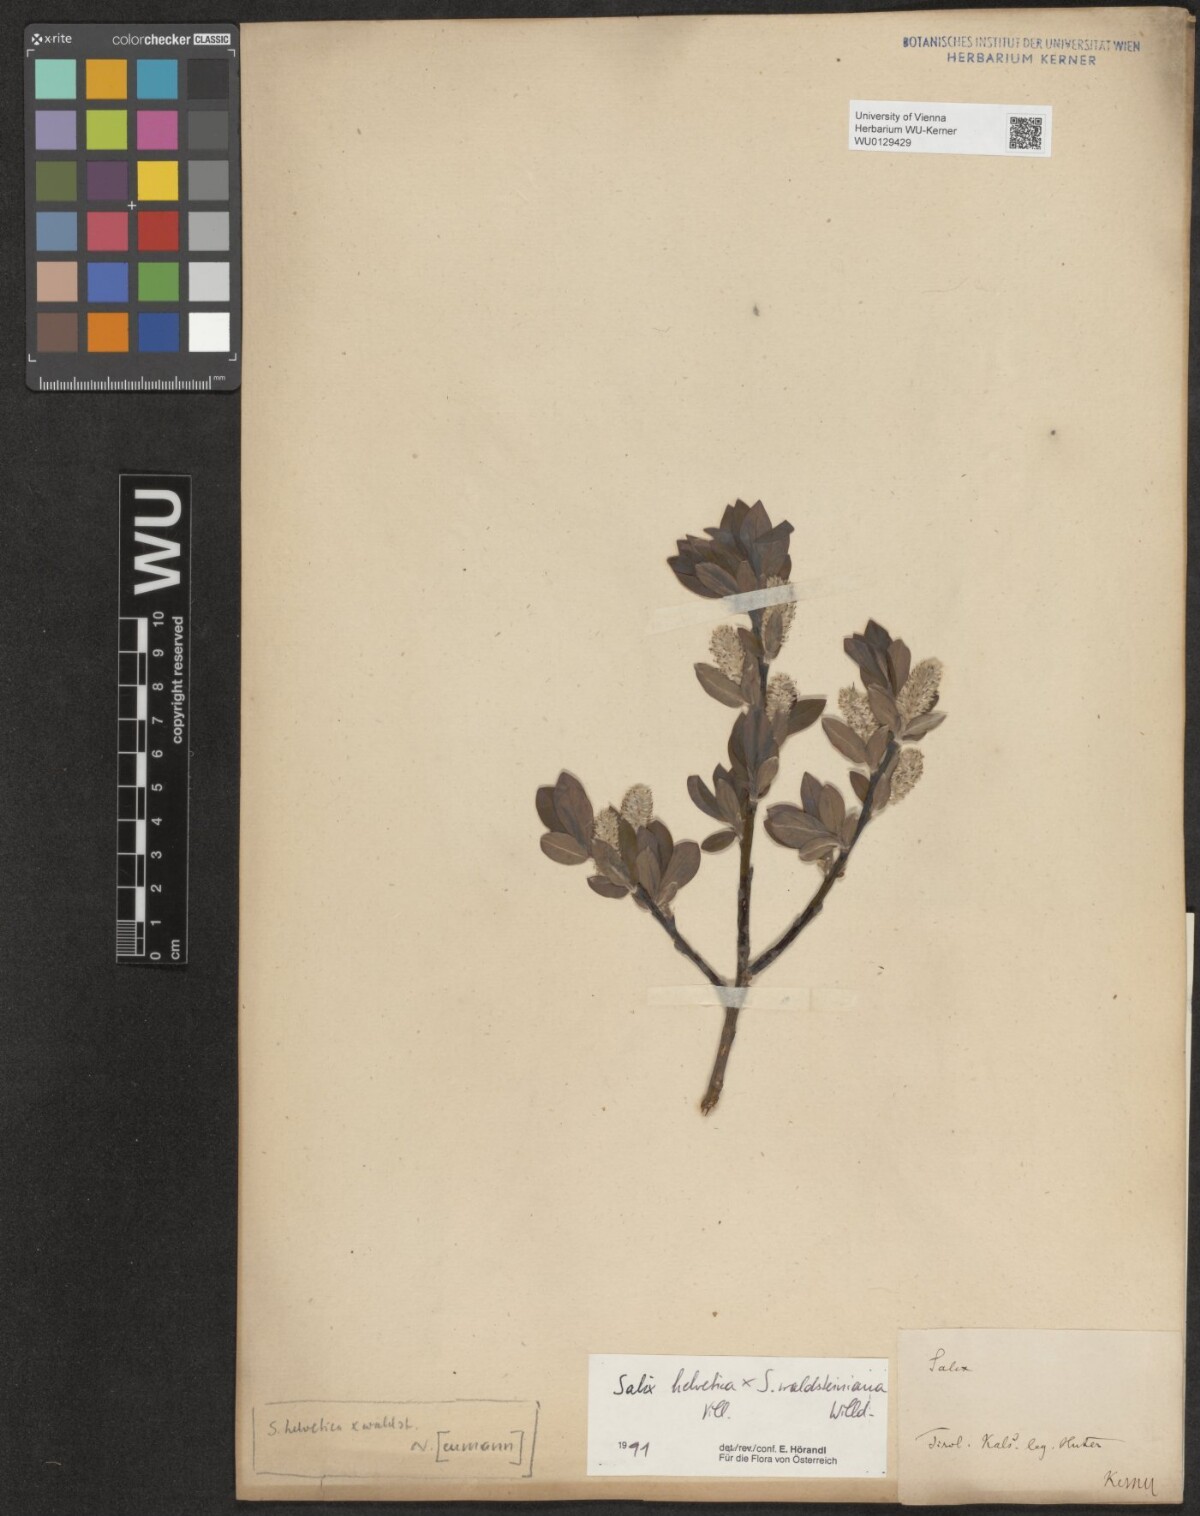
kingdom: Plantae
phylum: Tracheophyta
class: Magnoliopsida
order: Malpighiales
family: Salicaceae
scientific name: Salicaceae
